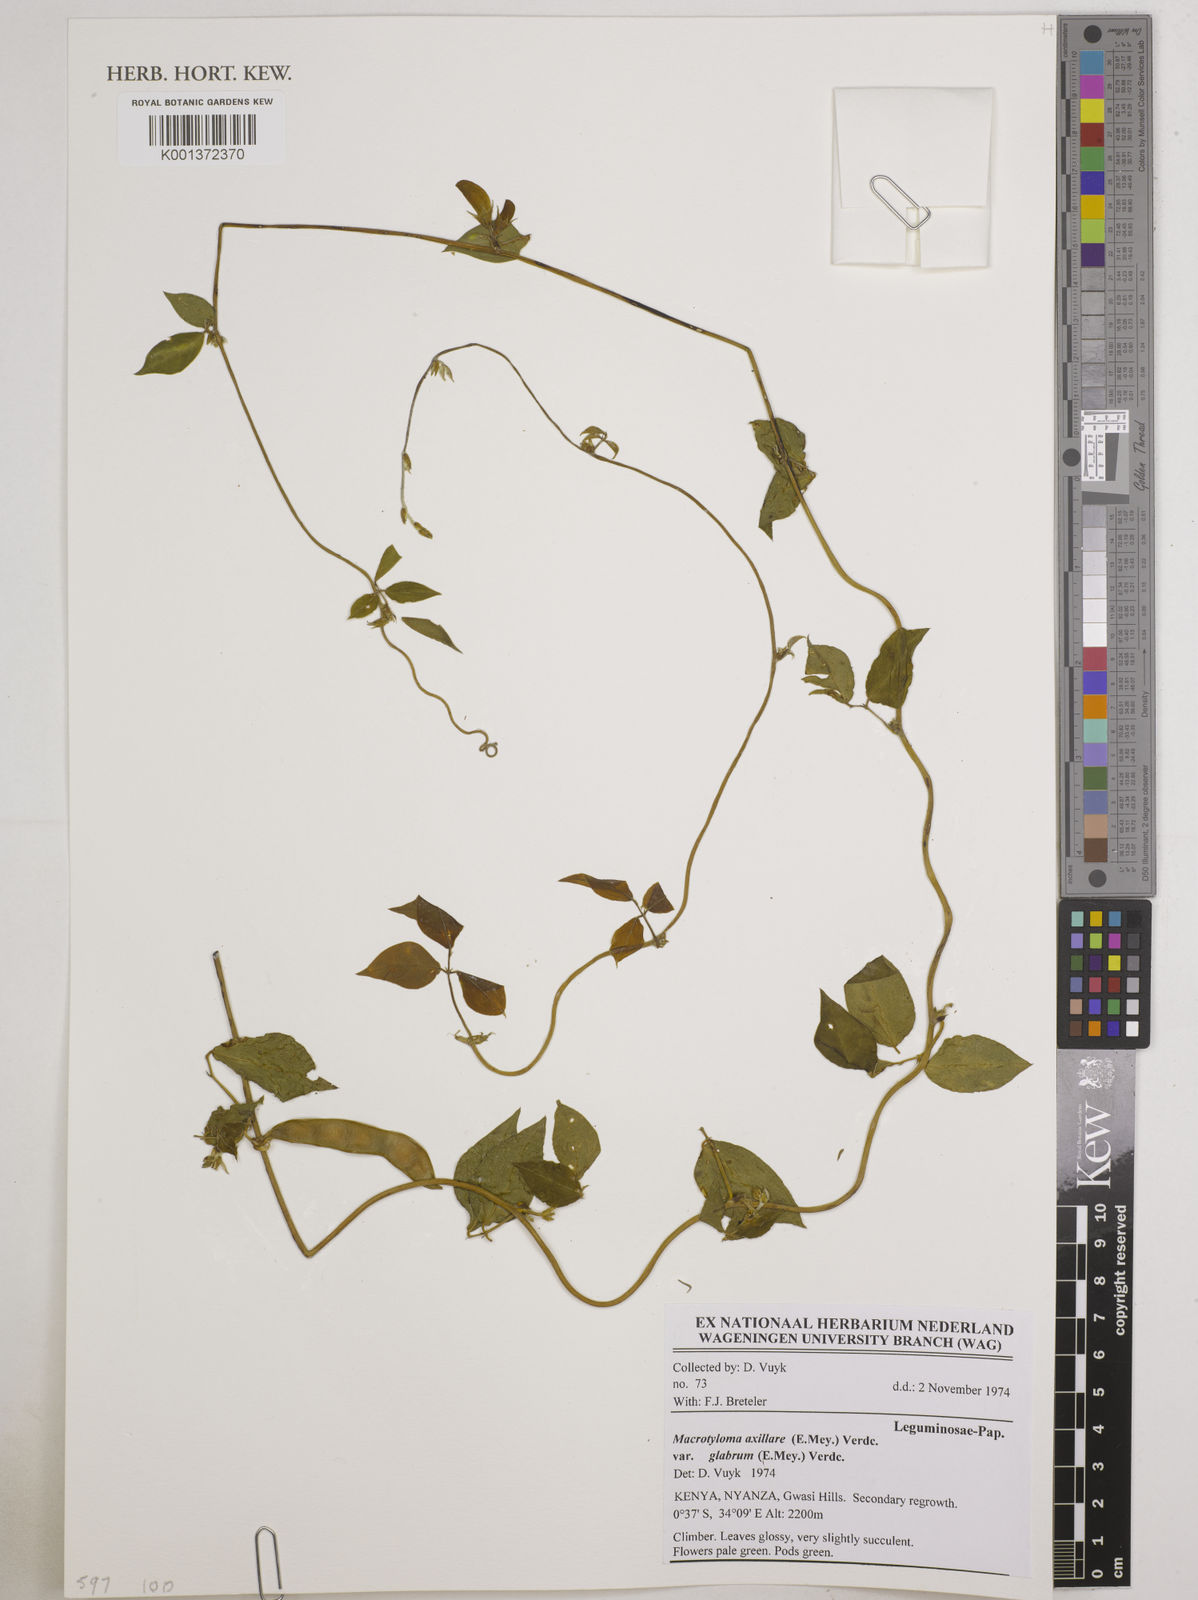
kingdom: Plantae
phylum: Tracheophyta
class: Magnoliopsida
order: Fabales
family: Fabaceae
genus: Macrotyloma
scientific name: Macrotyloma axillare
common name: Perennial horsegram
